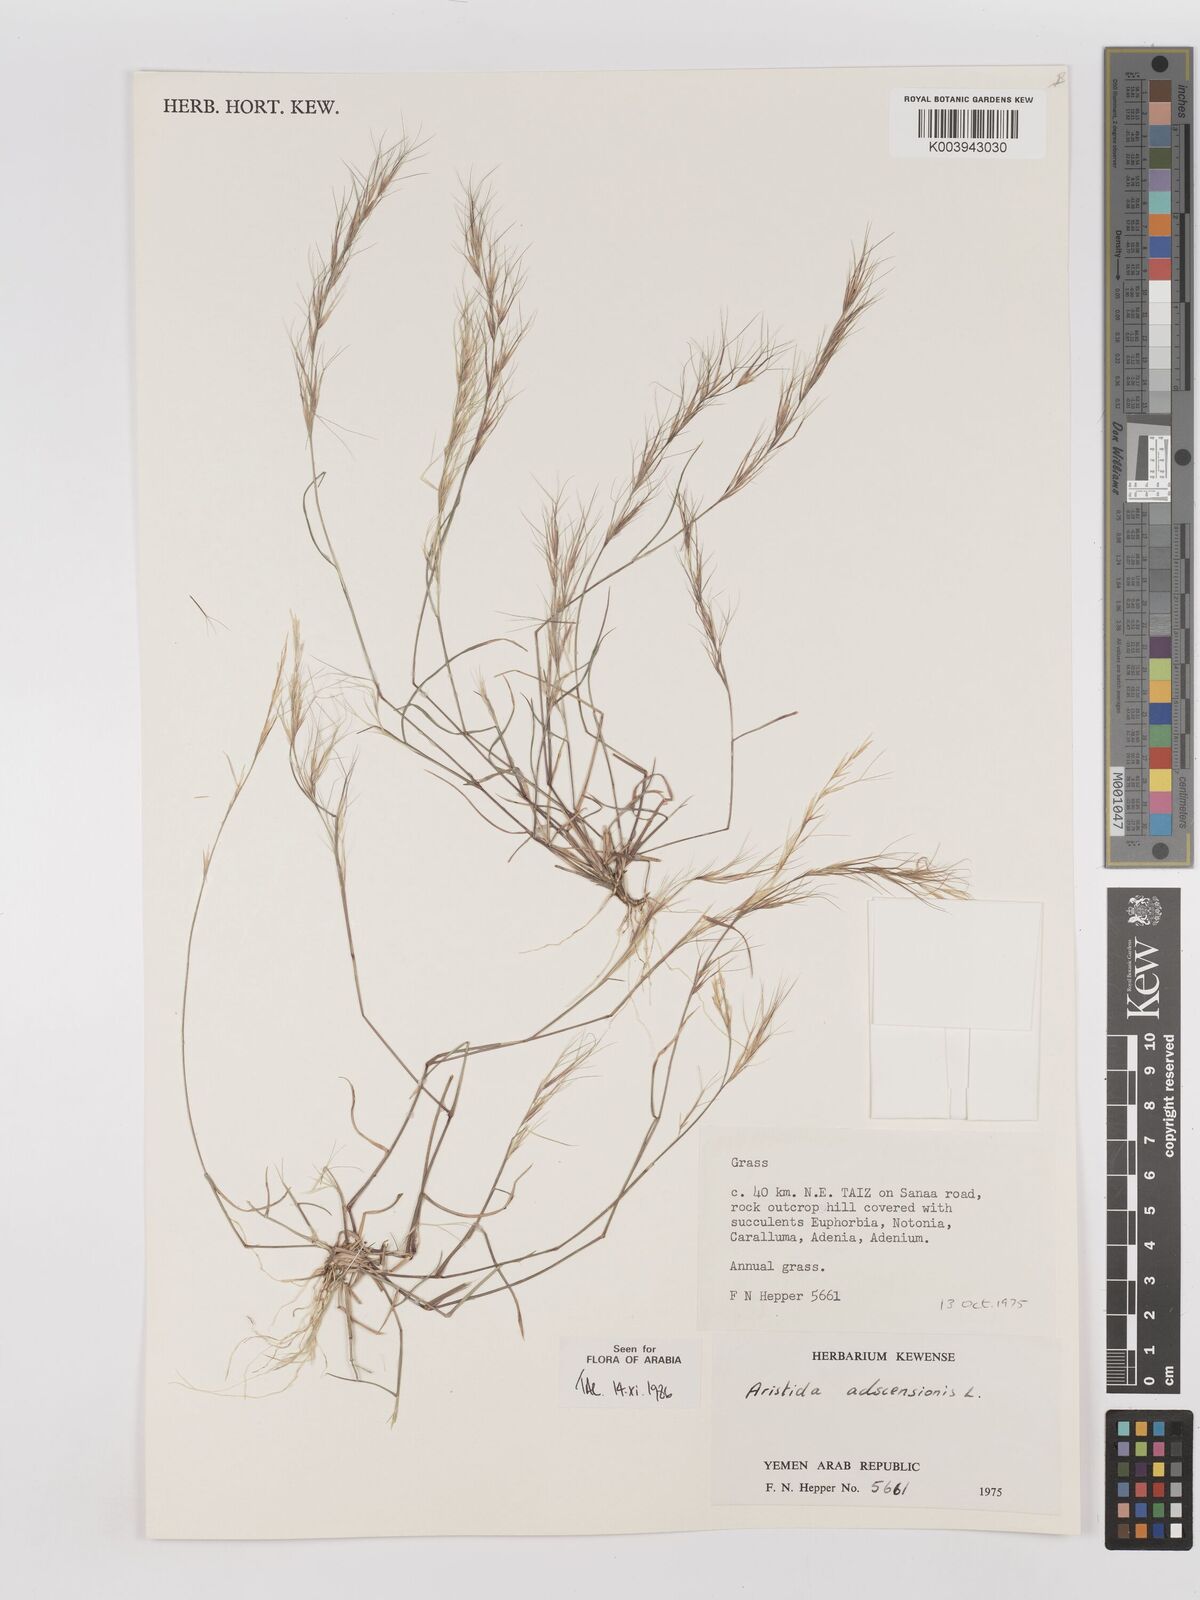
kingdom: Plantae
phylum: Tracheophyta
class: Liliopsida
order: Poales
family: Poaceae
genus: Aristida
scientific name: Aristida adscensionis
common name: Sixweeks threeawn
